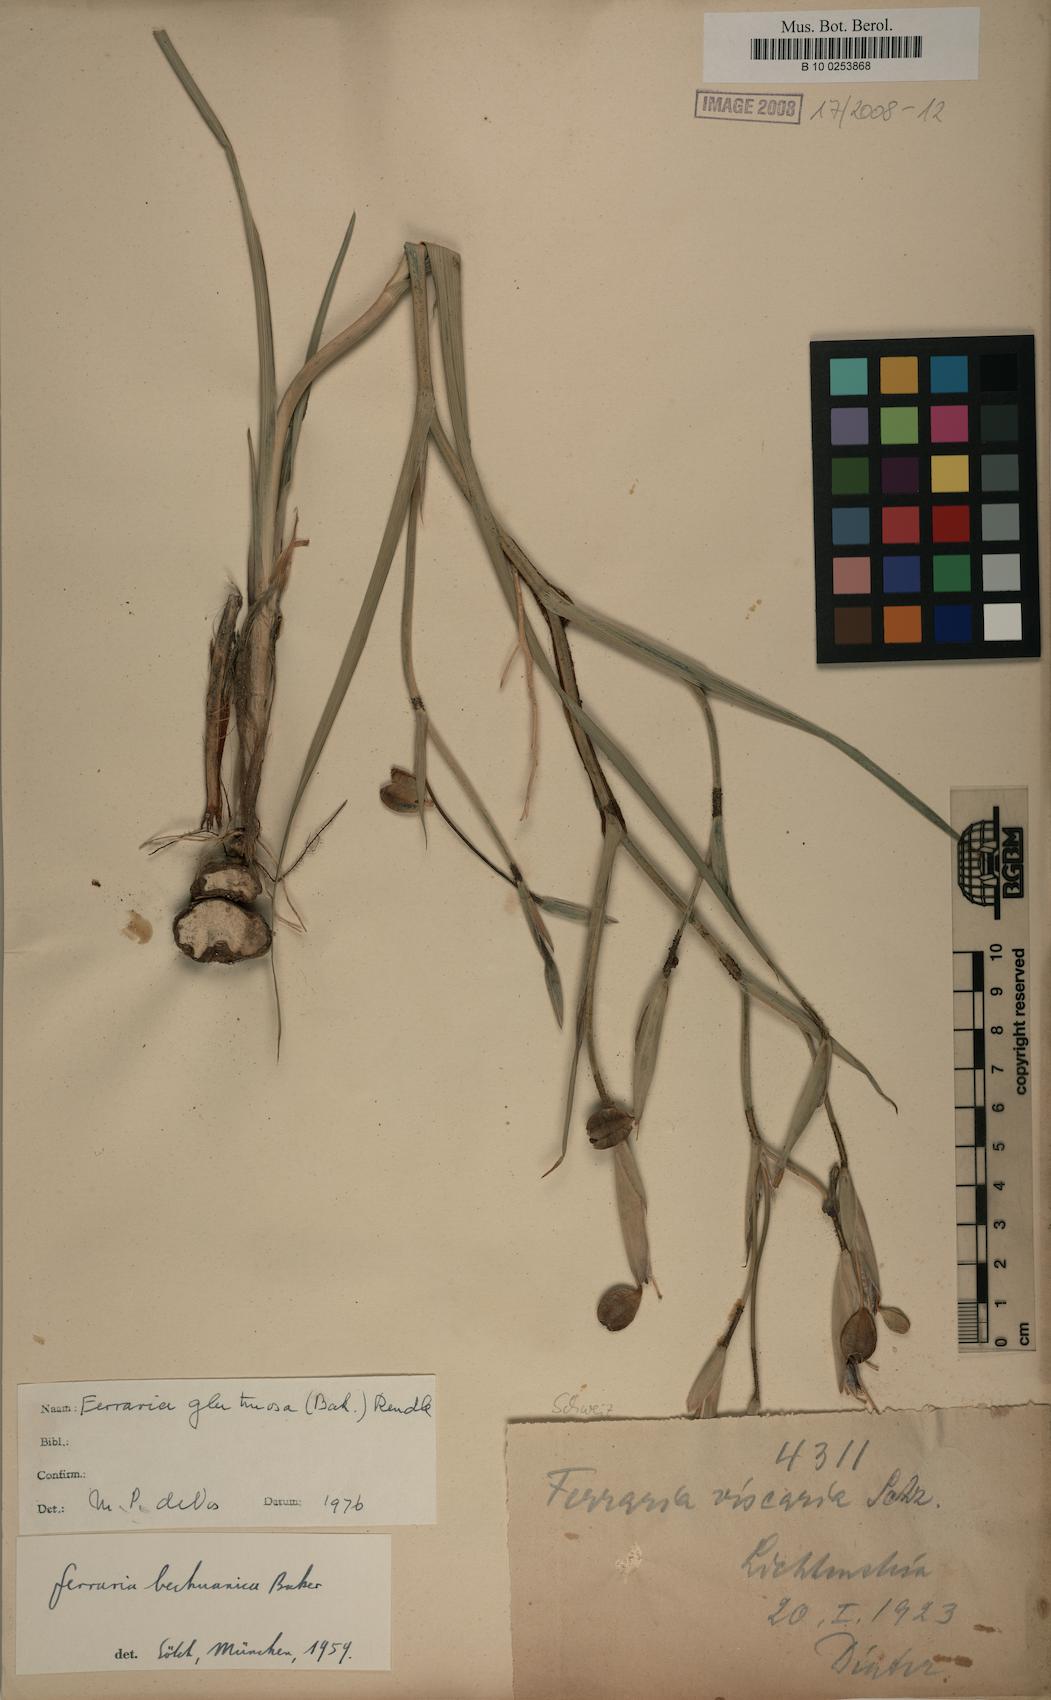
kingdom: Plantae
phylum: Tracheophyta
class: Liliopsida
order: Asparagales
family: Iridaceae
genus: Ferraria
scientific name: Ferraria glutinosa
